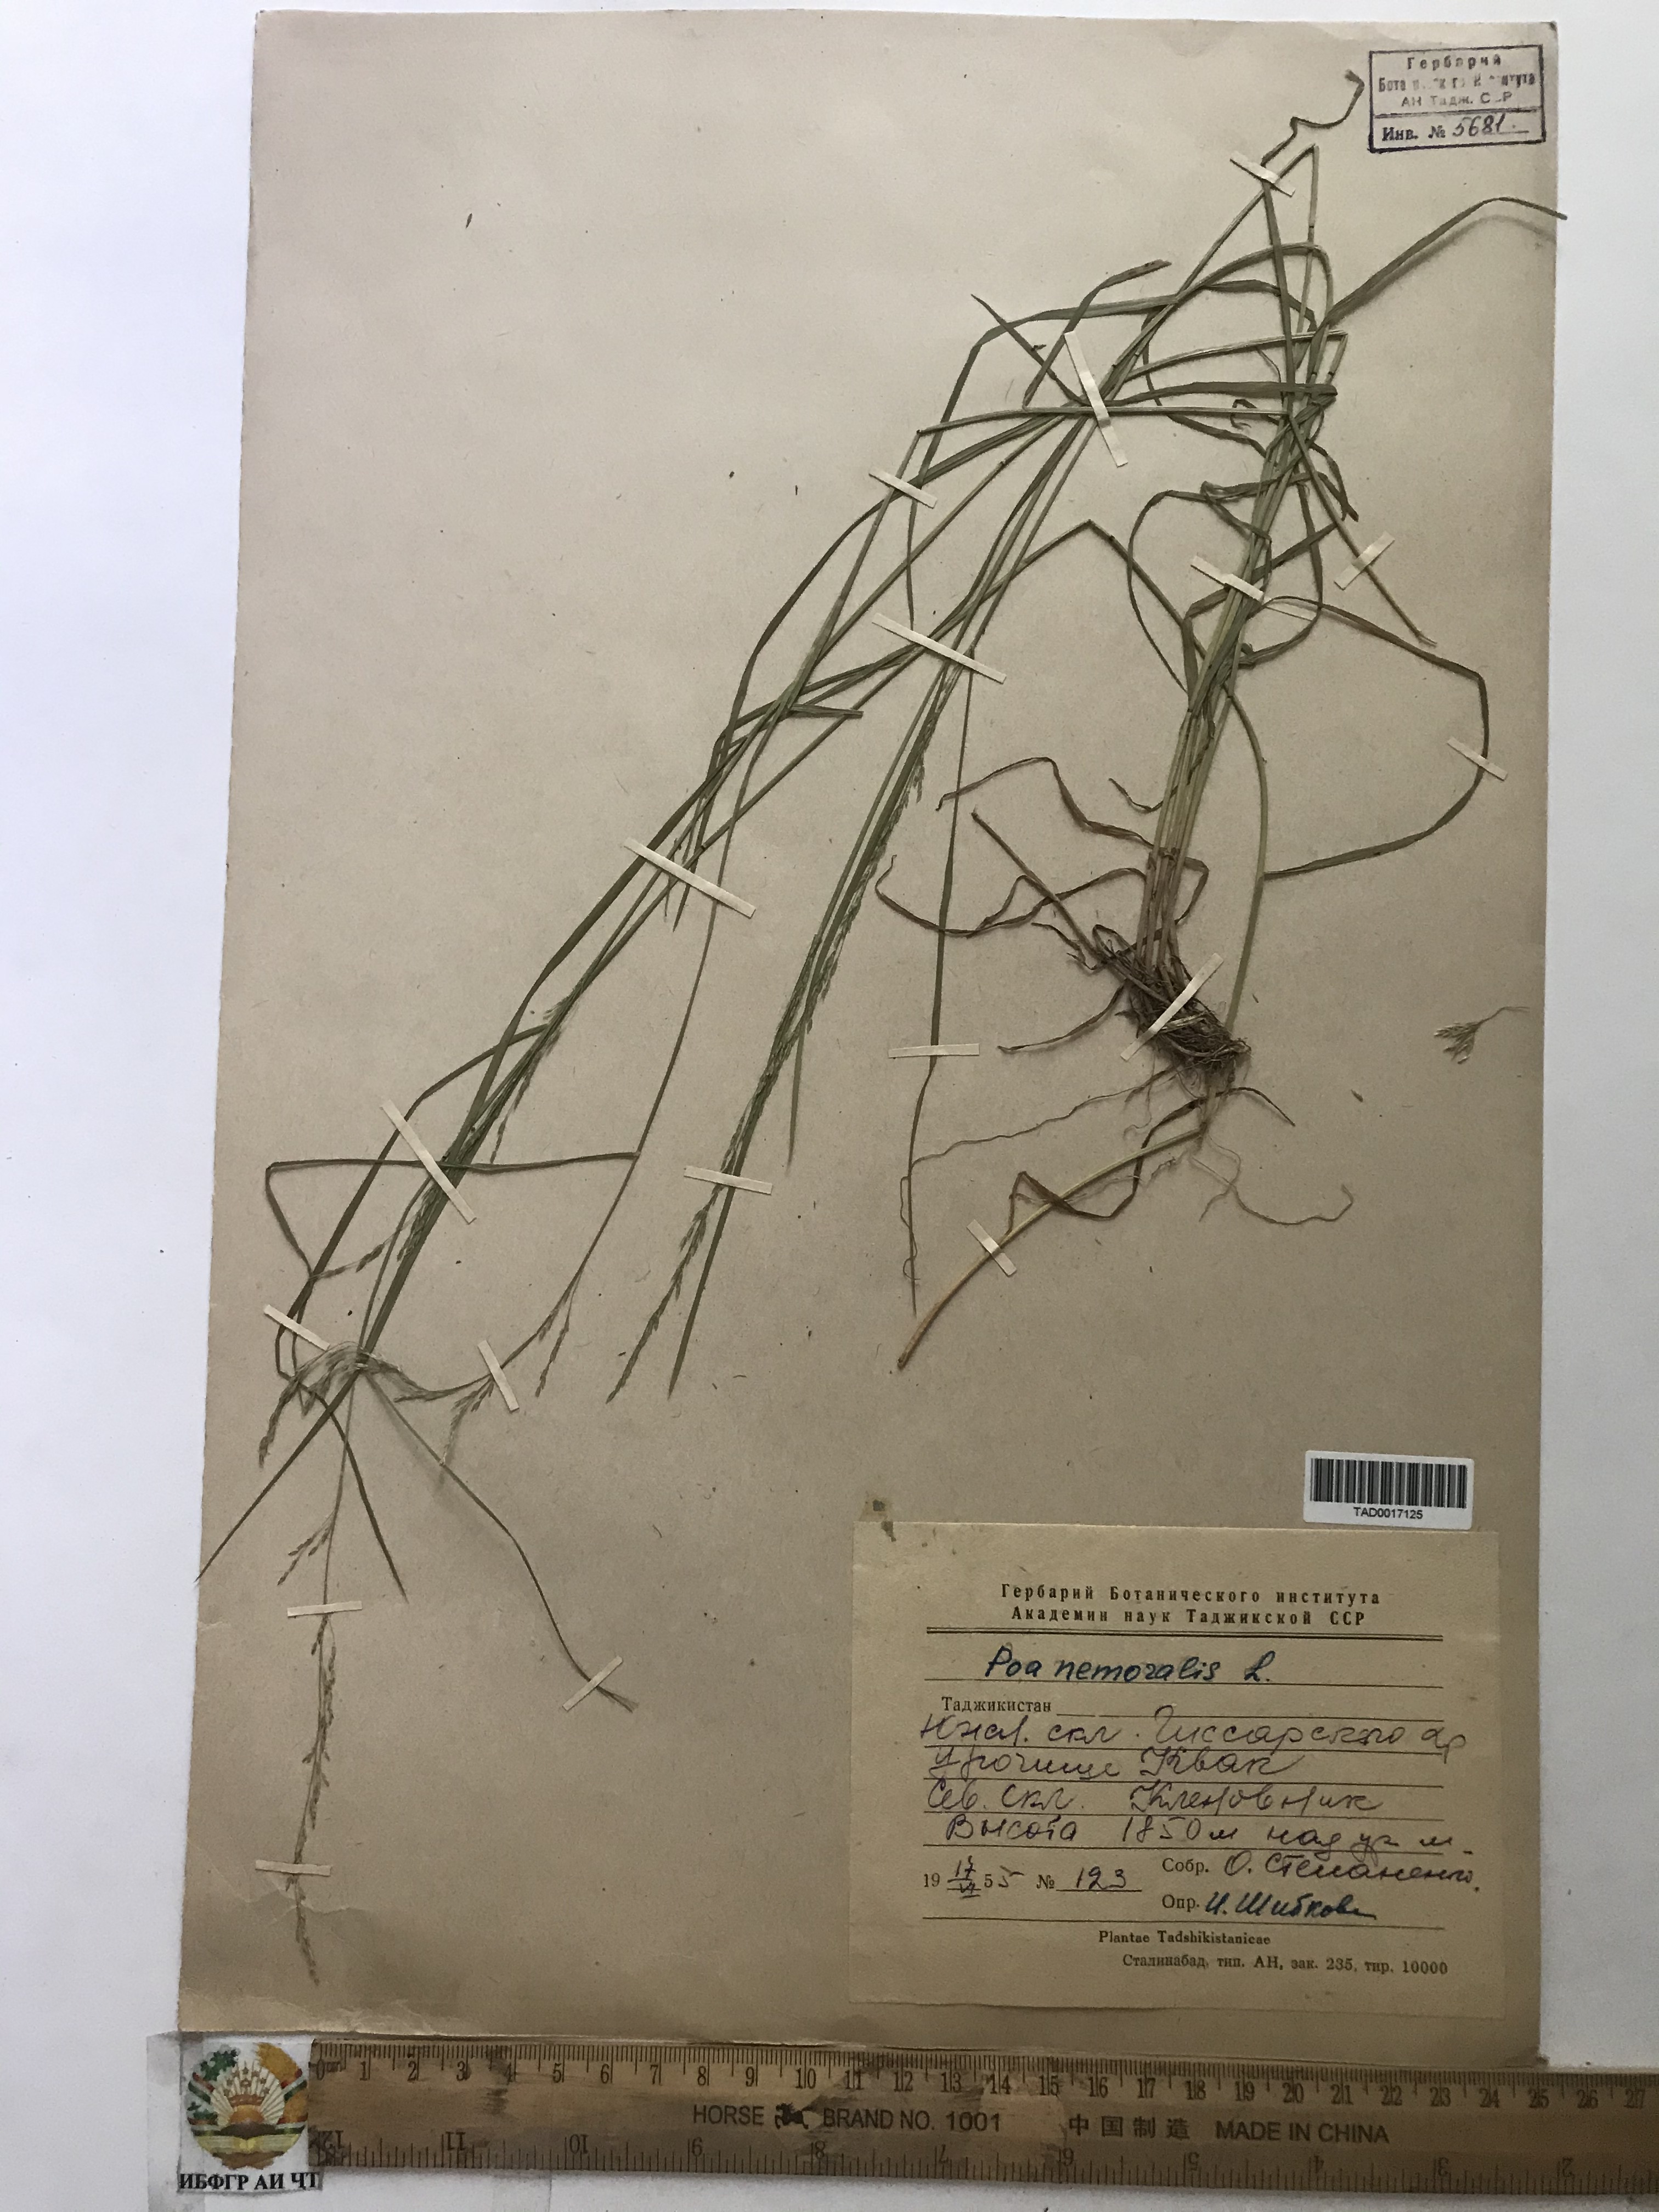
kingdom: Plantae
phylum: Tracheophyta
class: Liliopsida
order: Poales
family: Poaceae
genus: Poa
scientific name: Poa nemoralis
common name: Wood bluegrass
